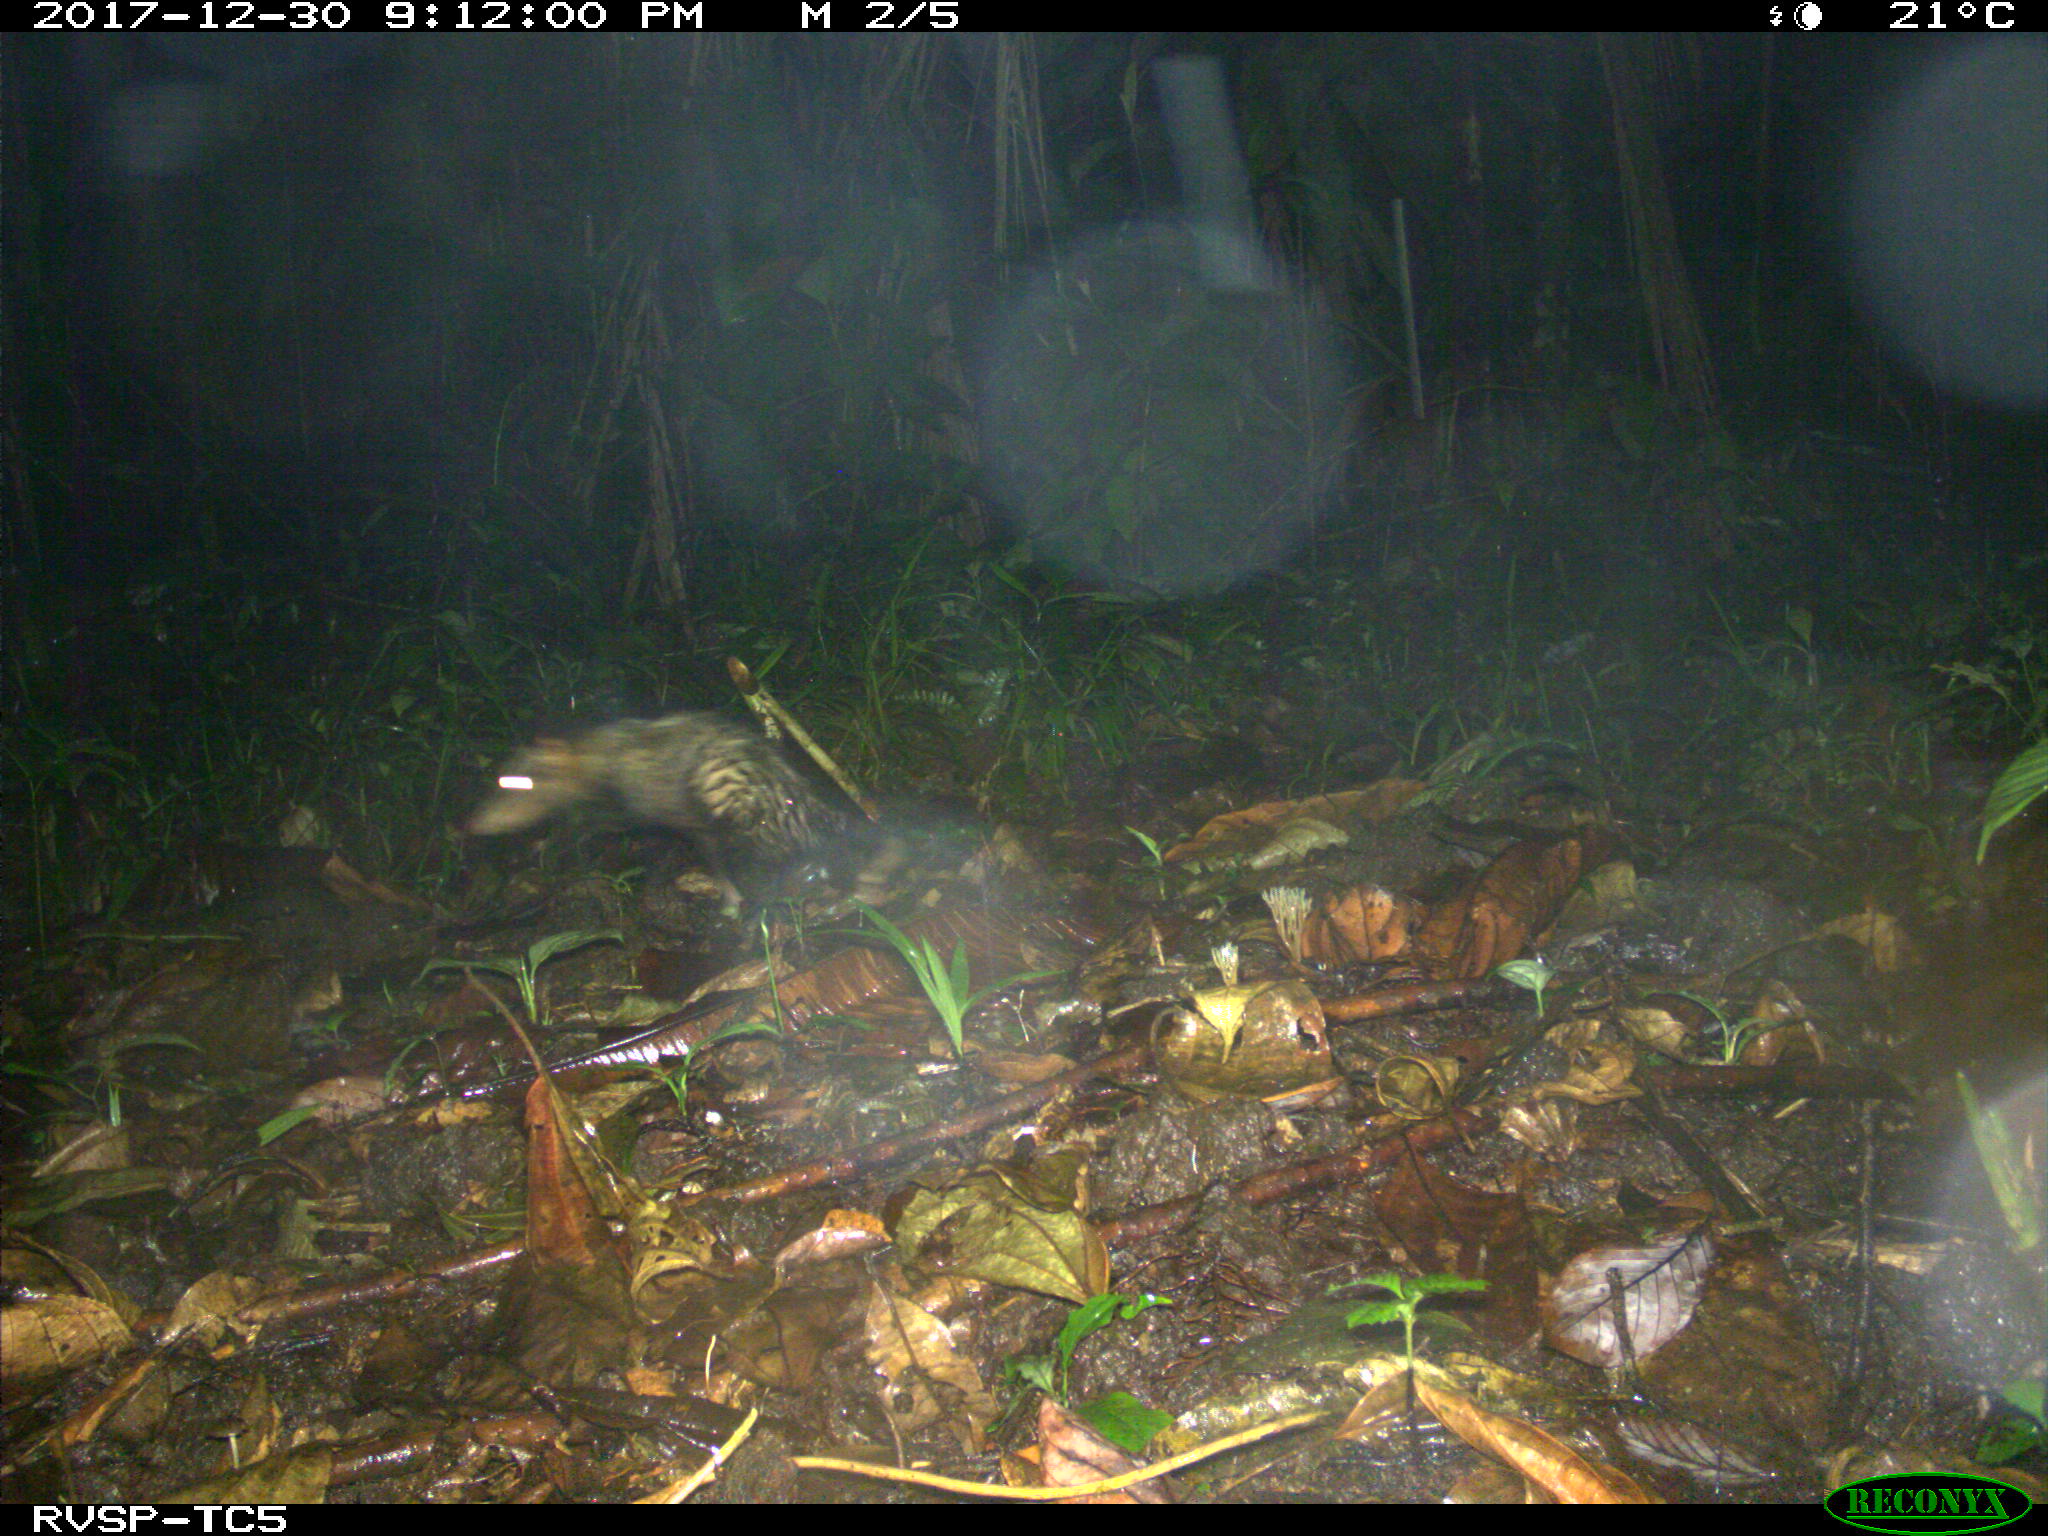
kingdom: Animalia
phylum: Chordata
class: Mammalia
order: Didelphimorphia
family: Didelphidae
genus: Didelphis
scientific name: Didelphis marsupialis
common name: Common opossum
